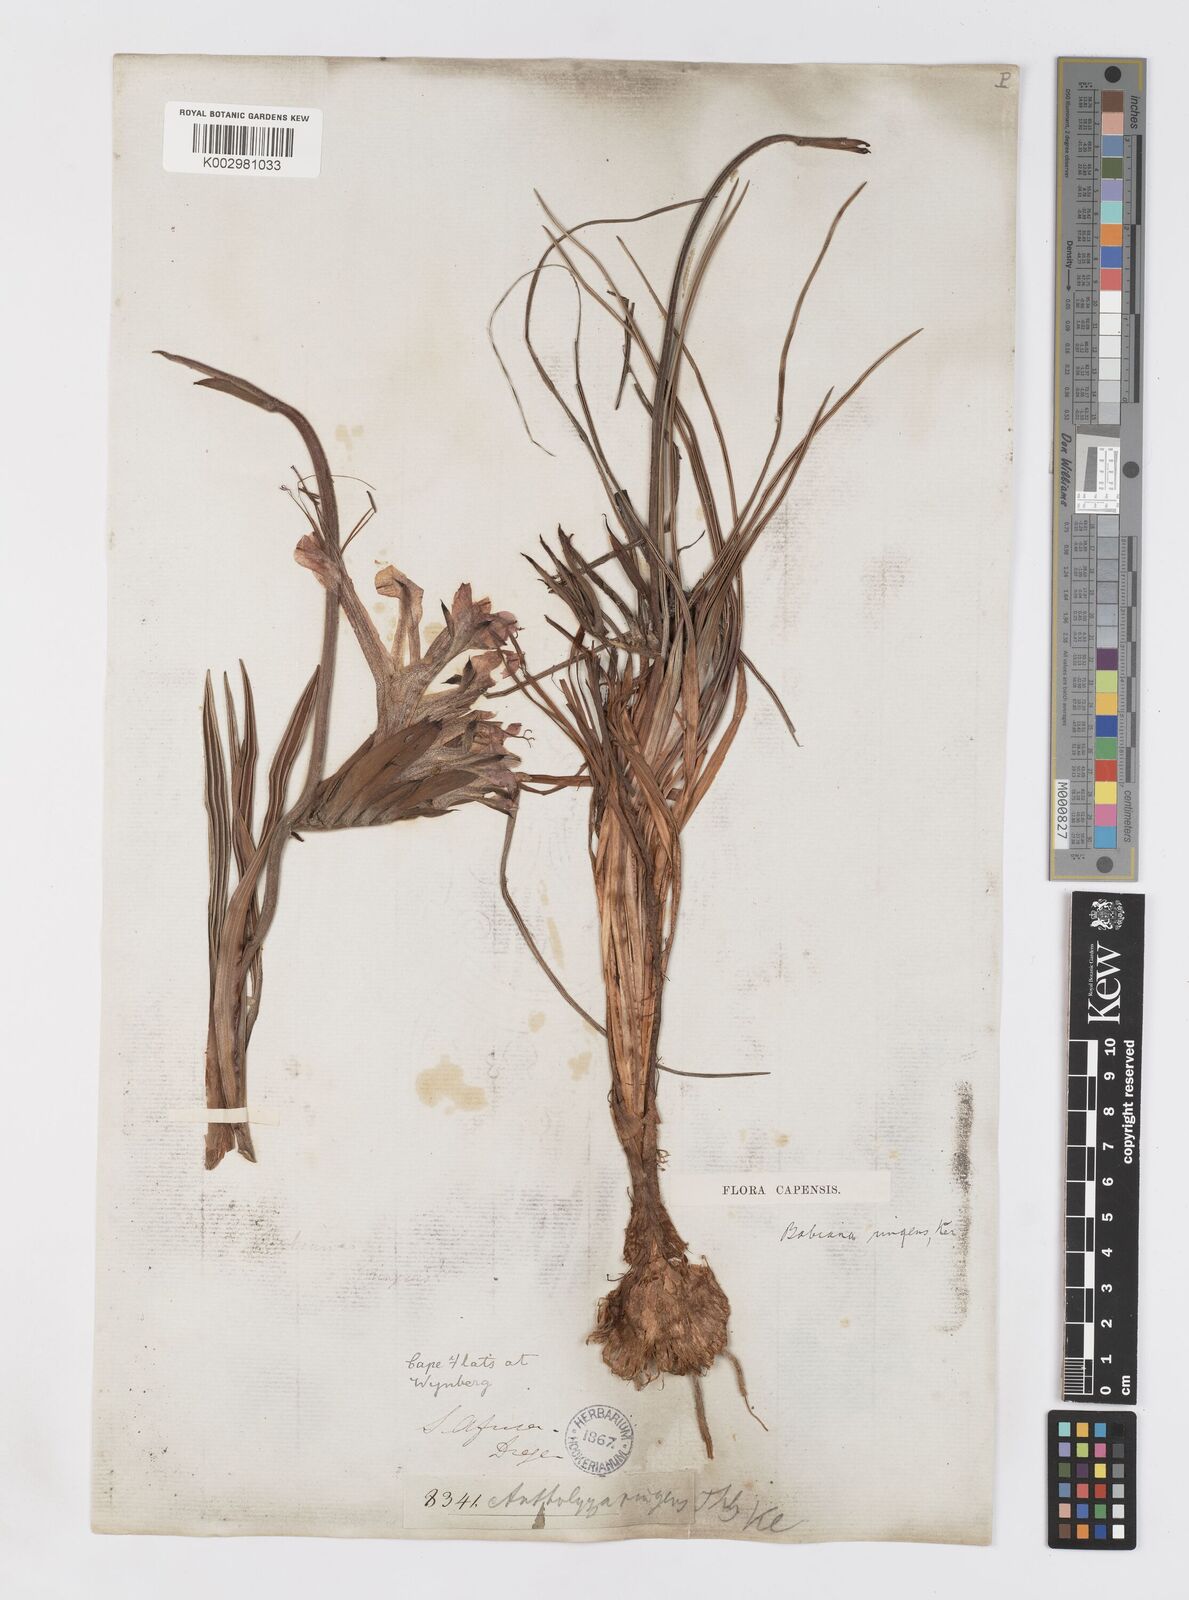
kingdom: Plantae
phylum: Tracheophyta
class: Liliopsida
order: Asparagales
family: Iridaceae
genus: Babiana
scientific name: Babiana ringens
